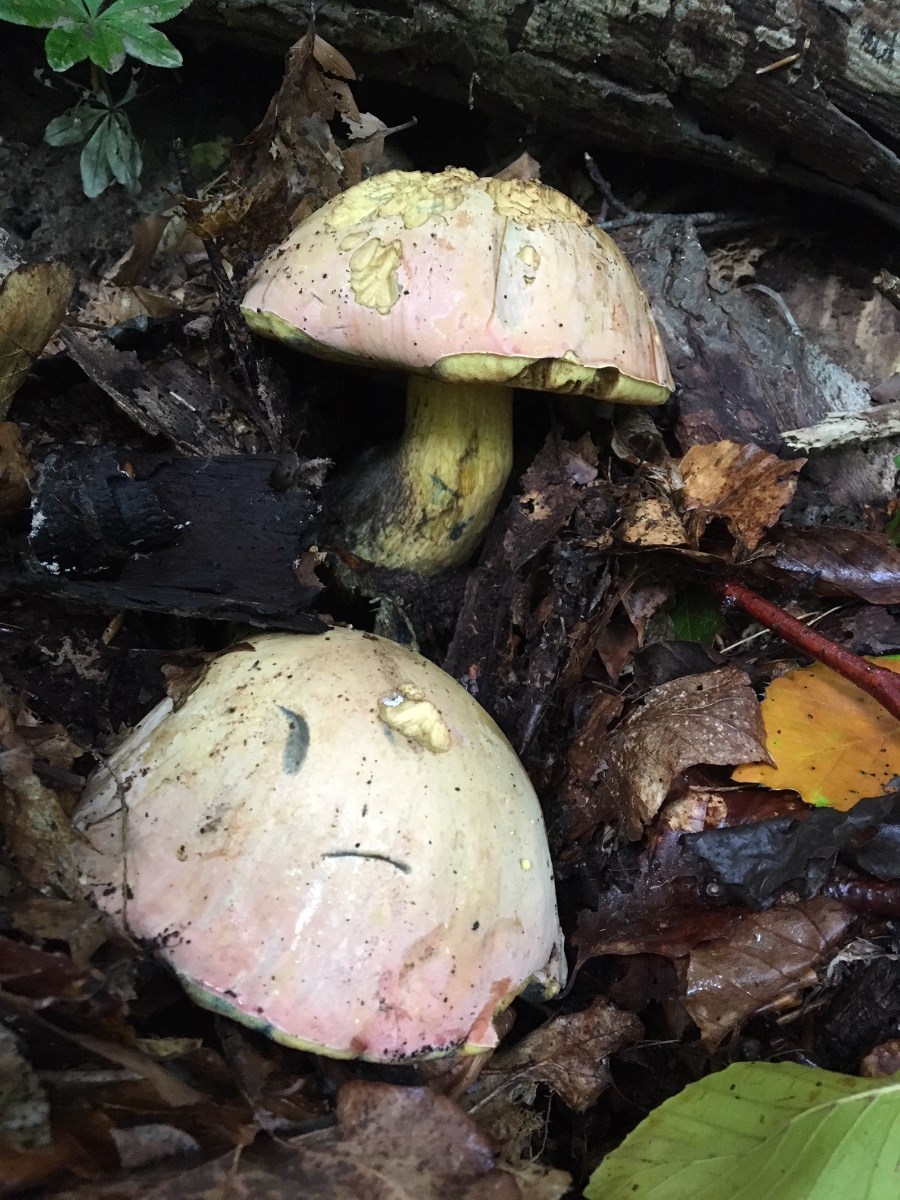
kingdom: Fungi
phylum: Basidiomycota
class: Agaricomycetes
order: Boletales
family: Boletaceae
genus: Rubroboletus
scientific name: Rubroboletus legaliae
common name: djævle-rørhat
